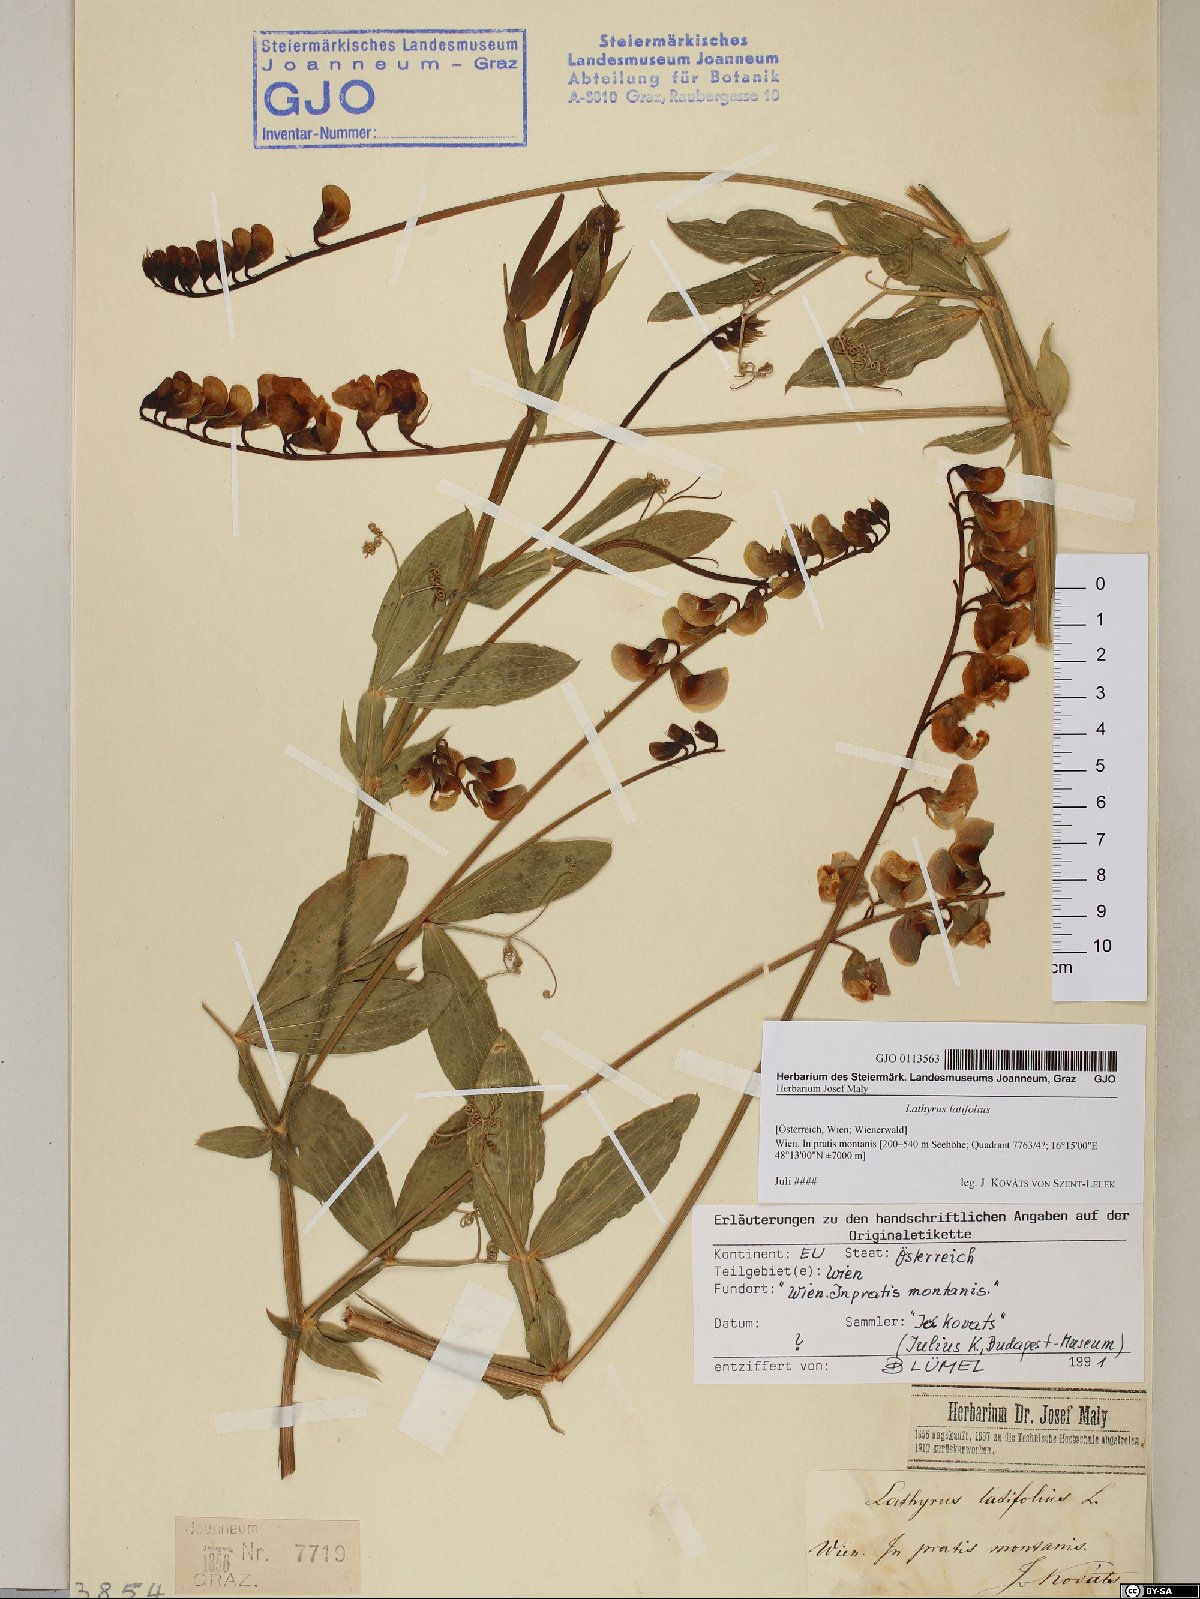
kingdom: Plantae
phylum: Tracheophyta
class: Magnoliopsida
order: Fabales
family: Fabaceae
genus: Lathyrus
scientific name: Lathyrus latifolius
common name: Perennial pea
